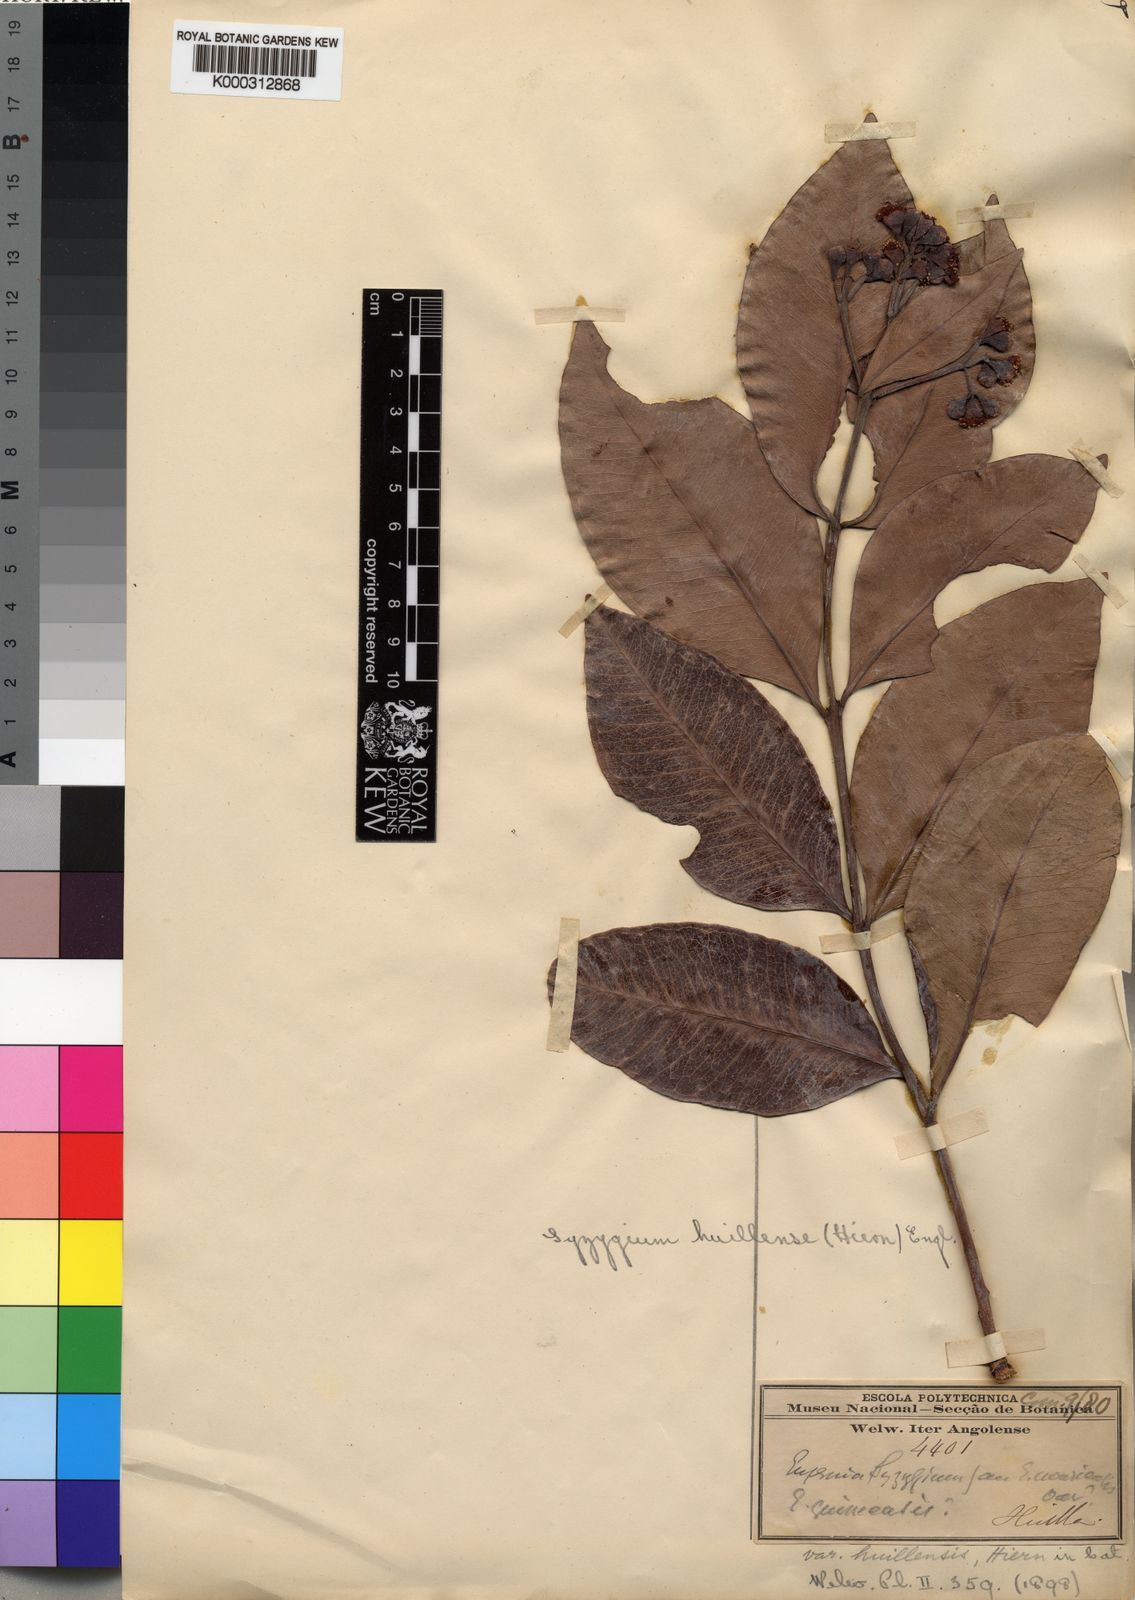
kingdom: Plantae
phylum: Tracheophyta
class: Magnoliopsida
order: Myrtales
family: Myrtaceae
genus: Syzygium
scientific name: Syzygium guineense
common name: Water-pear
